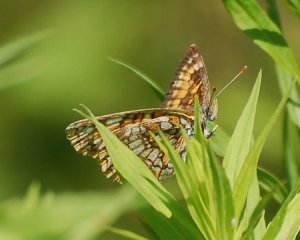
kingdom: Animalia
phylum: Arthropoda
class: Insecta
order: Lepidoptera
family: Nymphalidae
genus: Chlosyne
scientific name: Chlosyne harrisii
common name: Harris's Checkerspot
